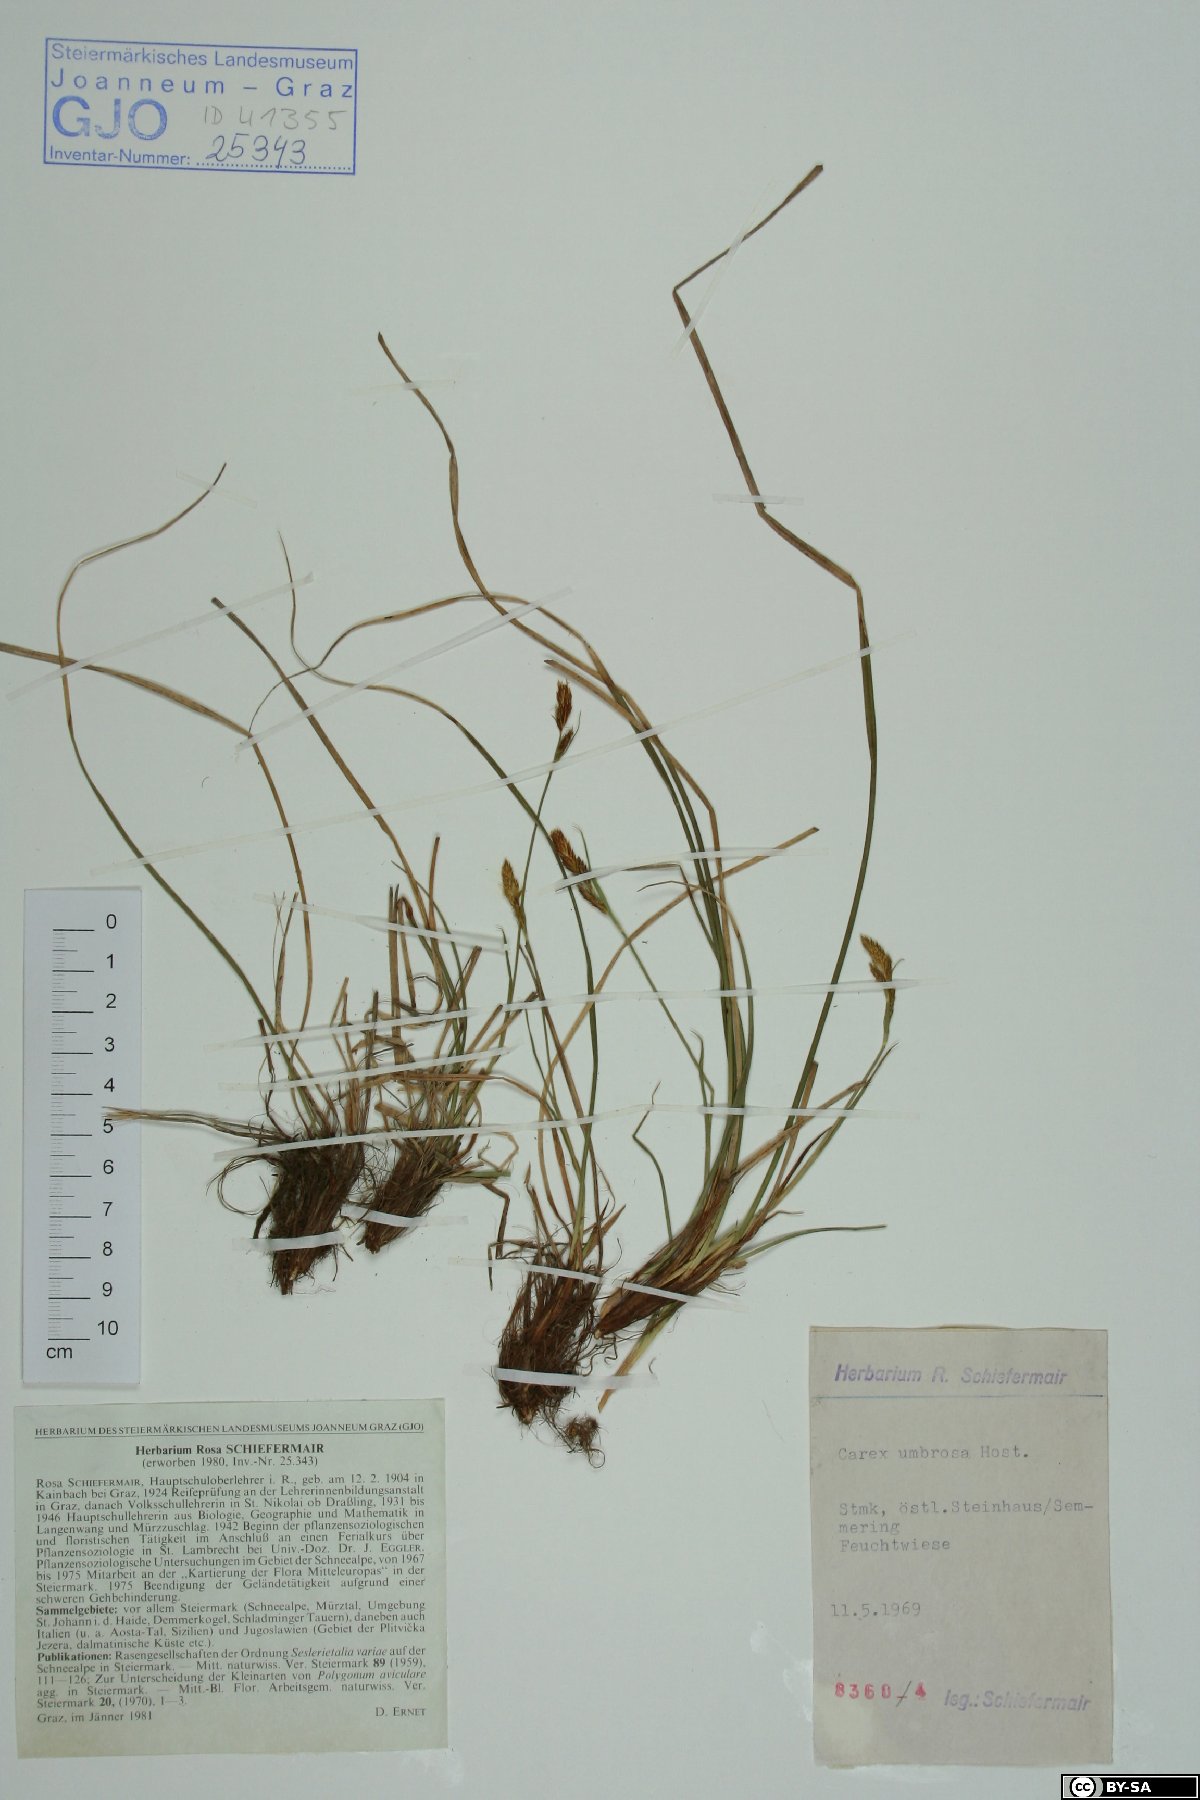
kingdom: Plantae
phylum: Tracheophyta
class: Liliopsida
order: Poales
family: Cyperaceae
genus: Carex
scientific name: Carex umbrosa
